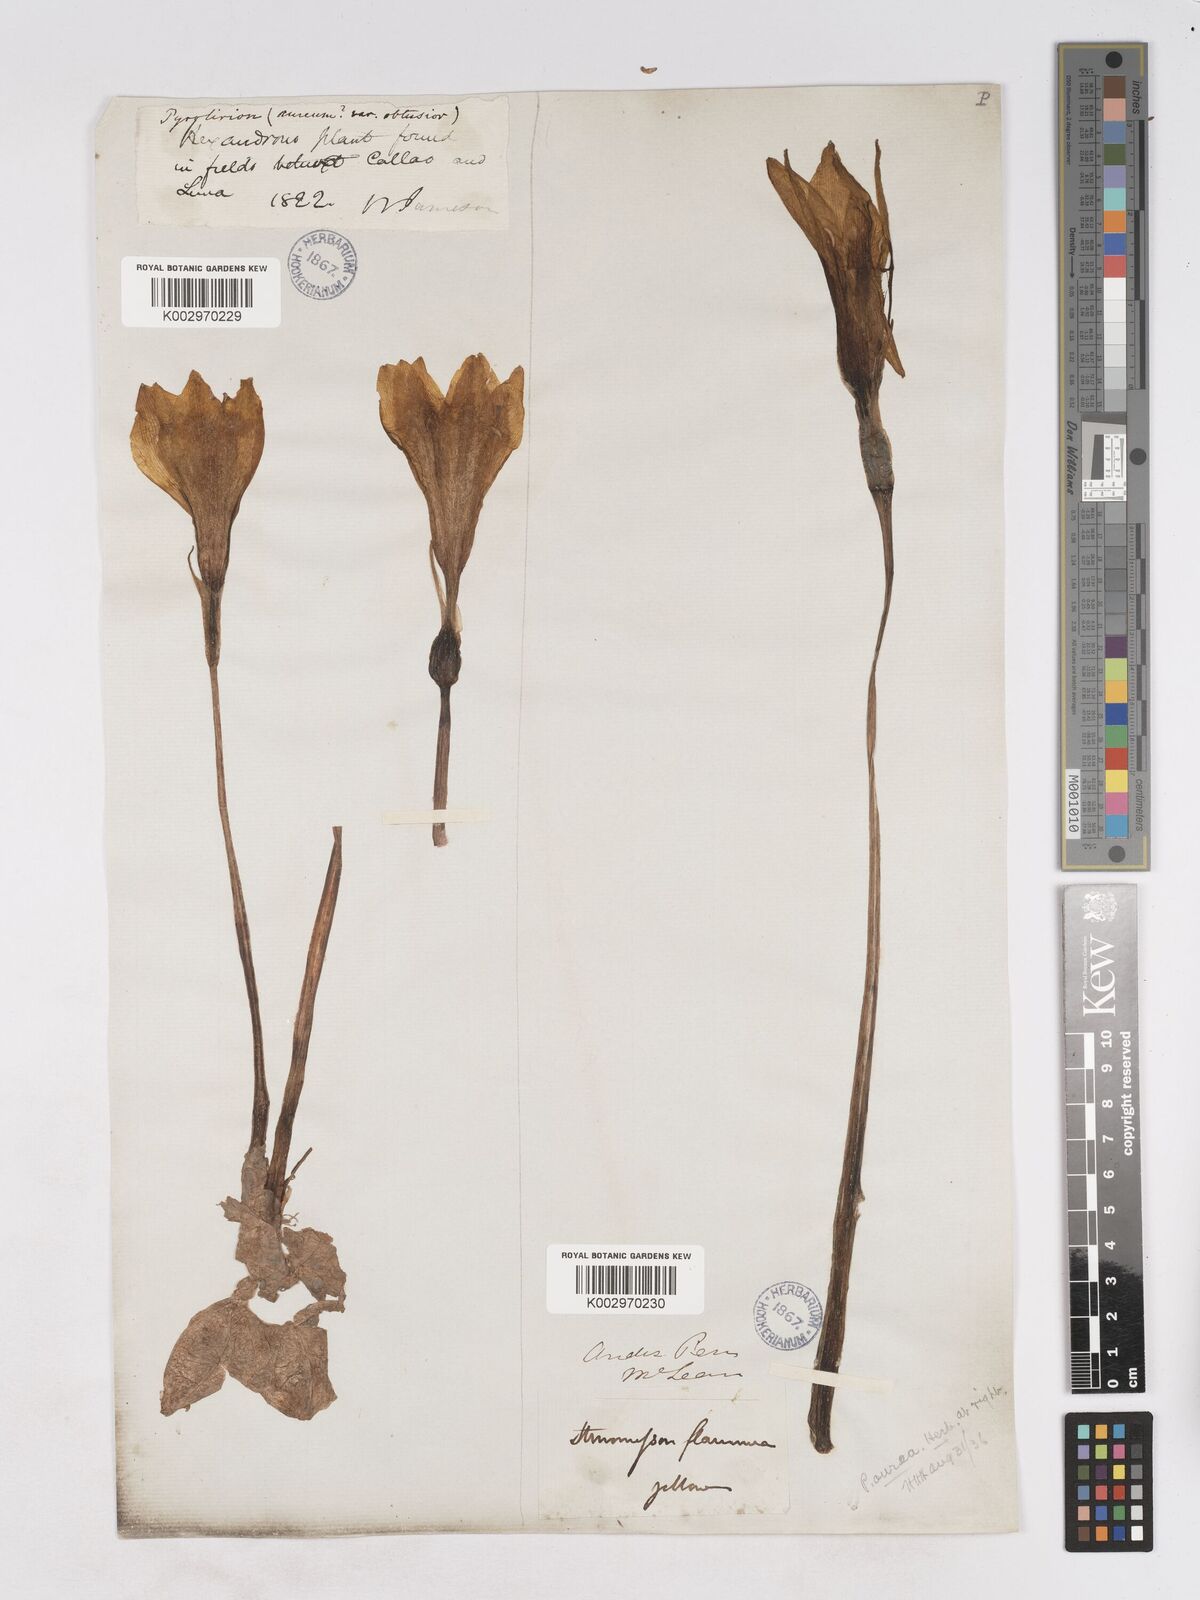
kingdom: Plantae
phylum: Tracheophyta
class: Liliopsida
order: Asparagales
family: Amaryllidaceae
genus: Pyrolirion
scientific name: Pyrolirion tubiflorum
